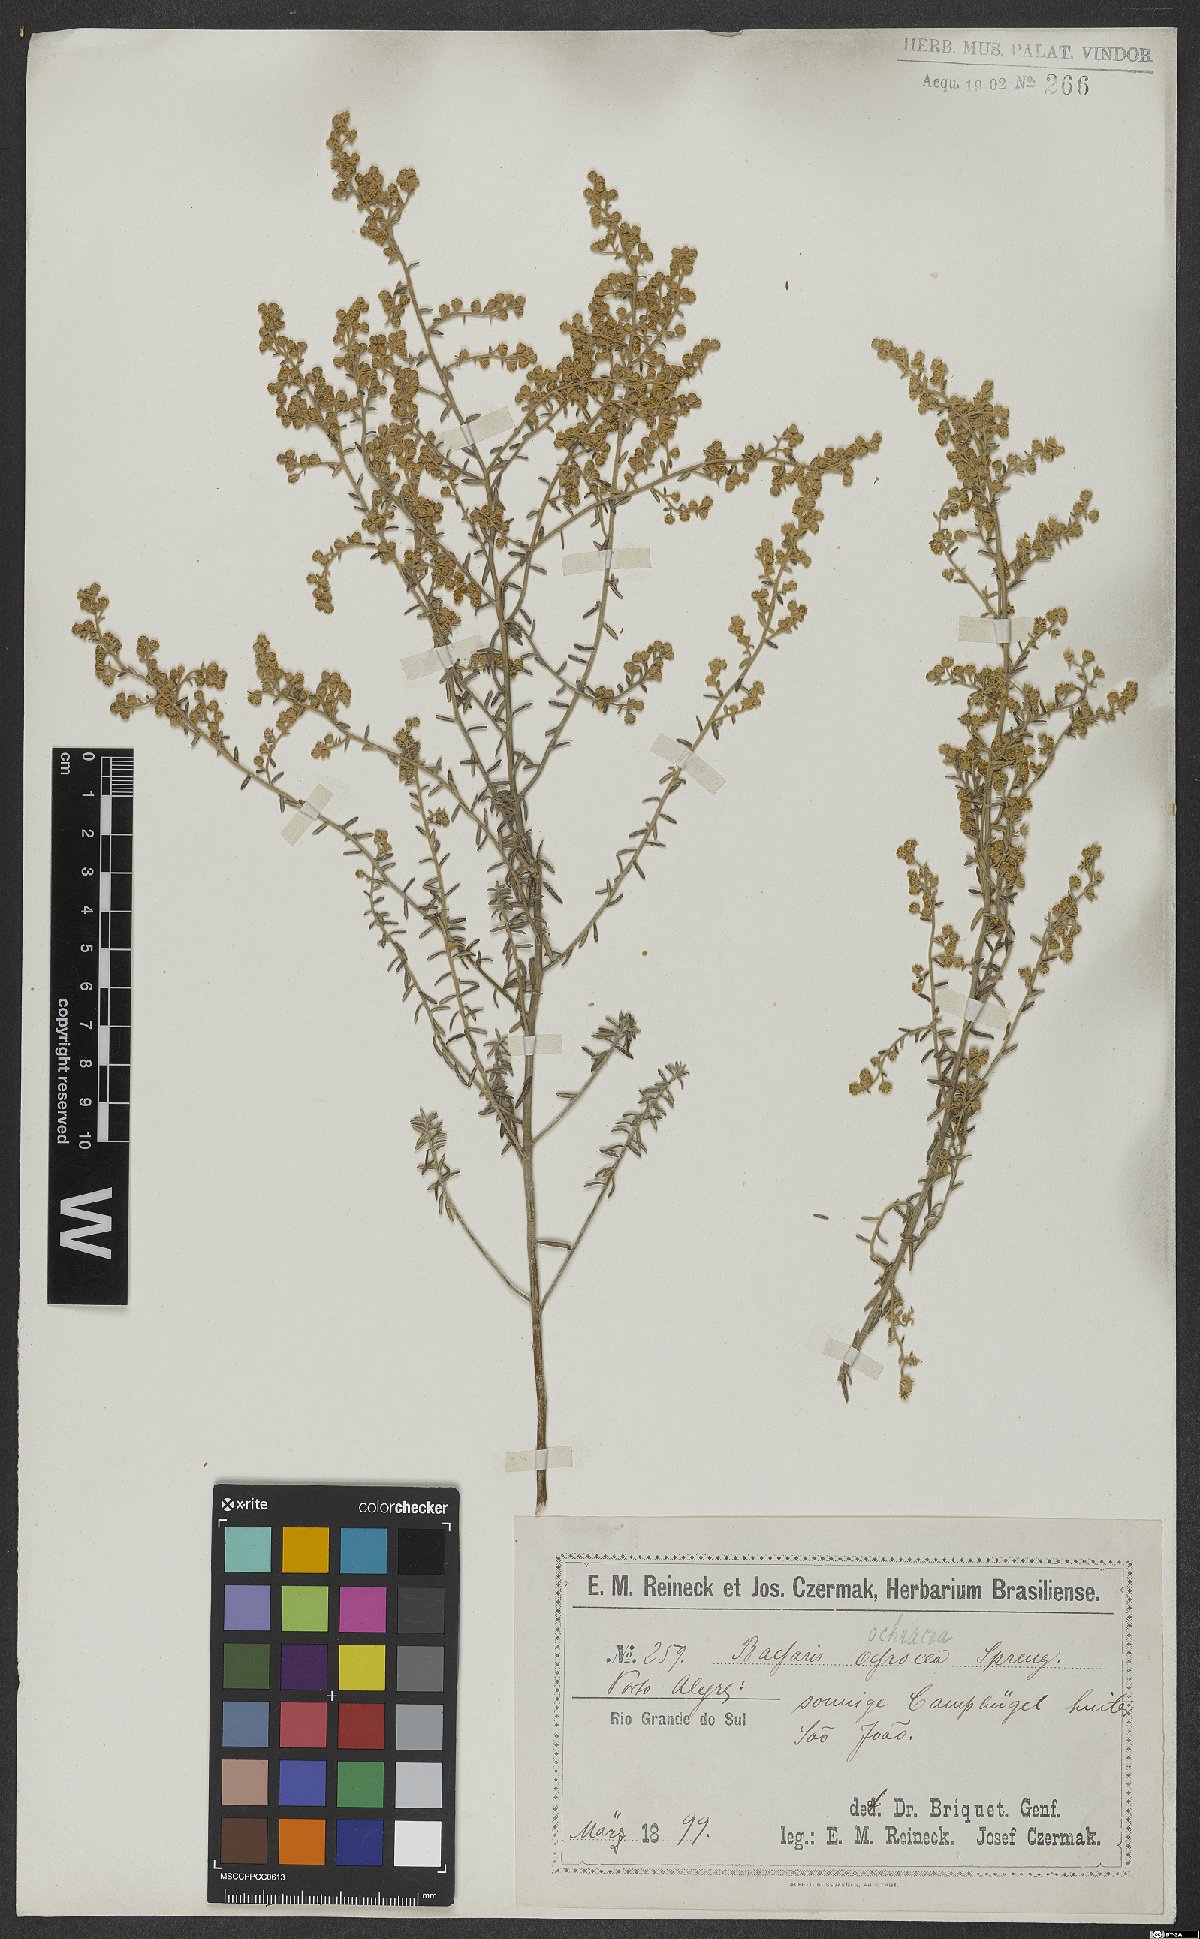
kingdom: Plantae
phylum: Tracheophyta
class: Magnoliopsida
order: Asterales
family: Asteraceae
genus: Baccharis
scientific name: Baccharis ochracea
